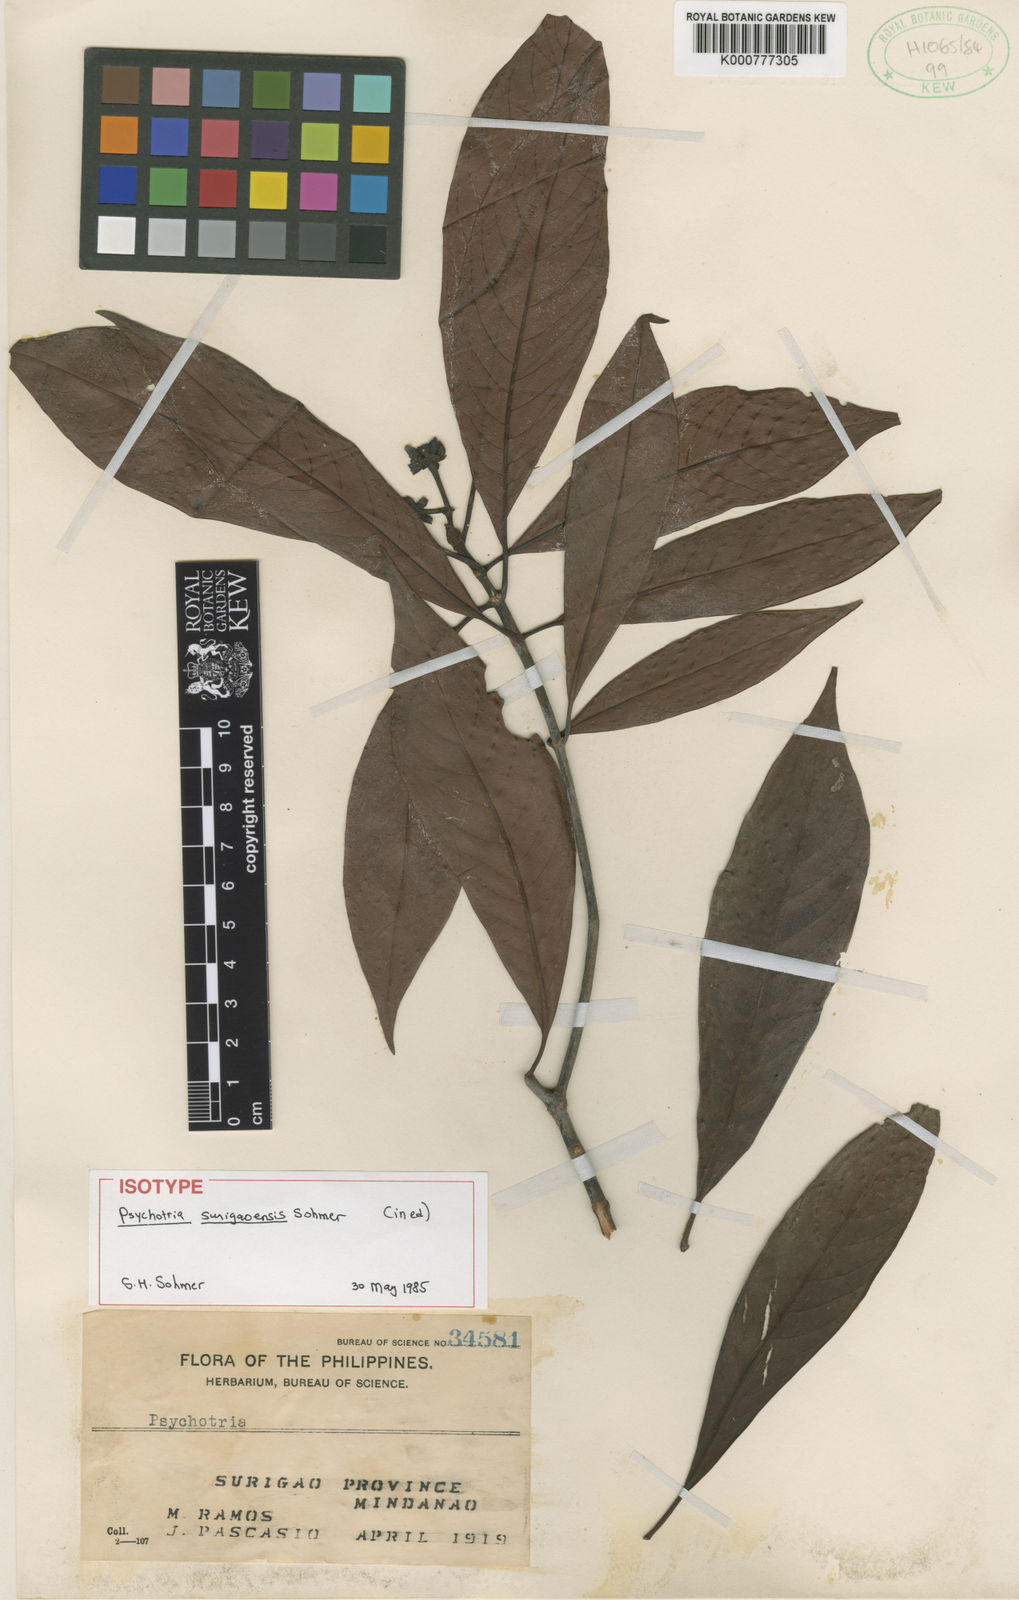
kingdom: Plantae
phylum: Tracheophyta
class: Magnoliopsida
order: Gentianales
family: Rubiaceae
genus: Psychotria
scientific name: Psychotria surigaoensis
